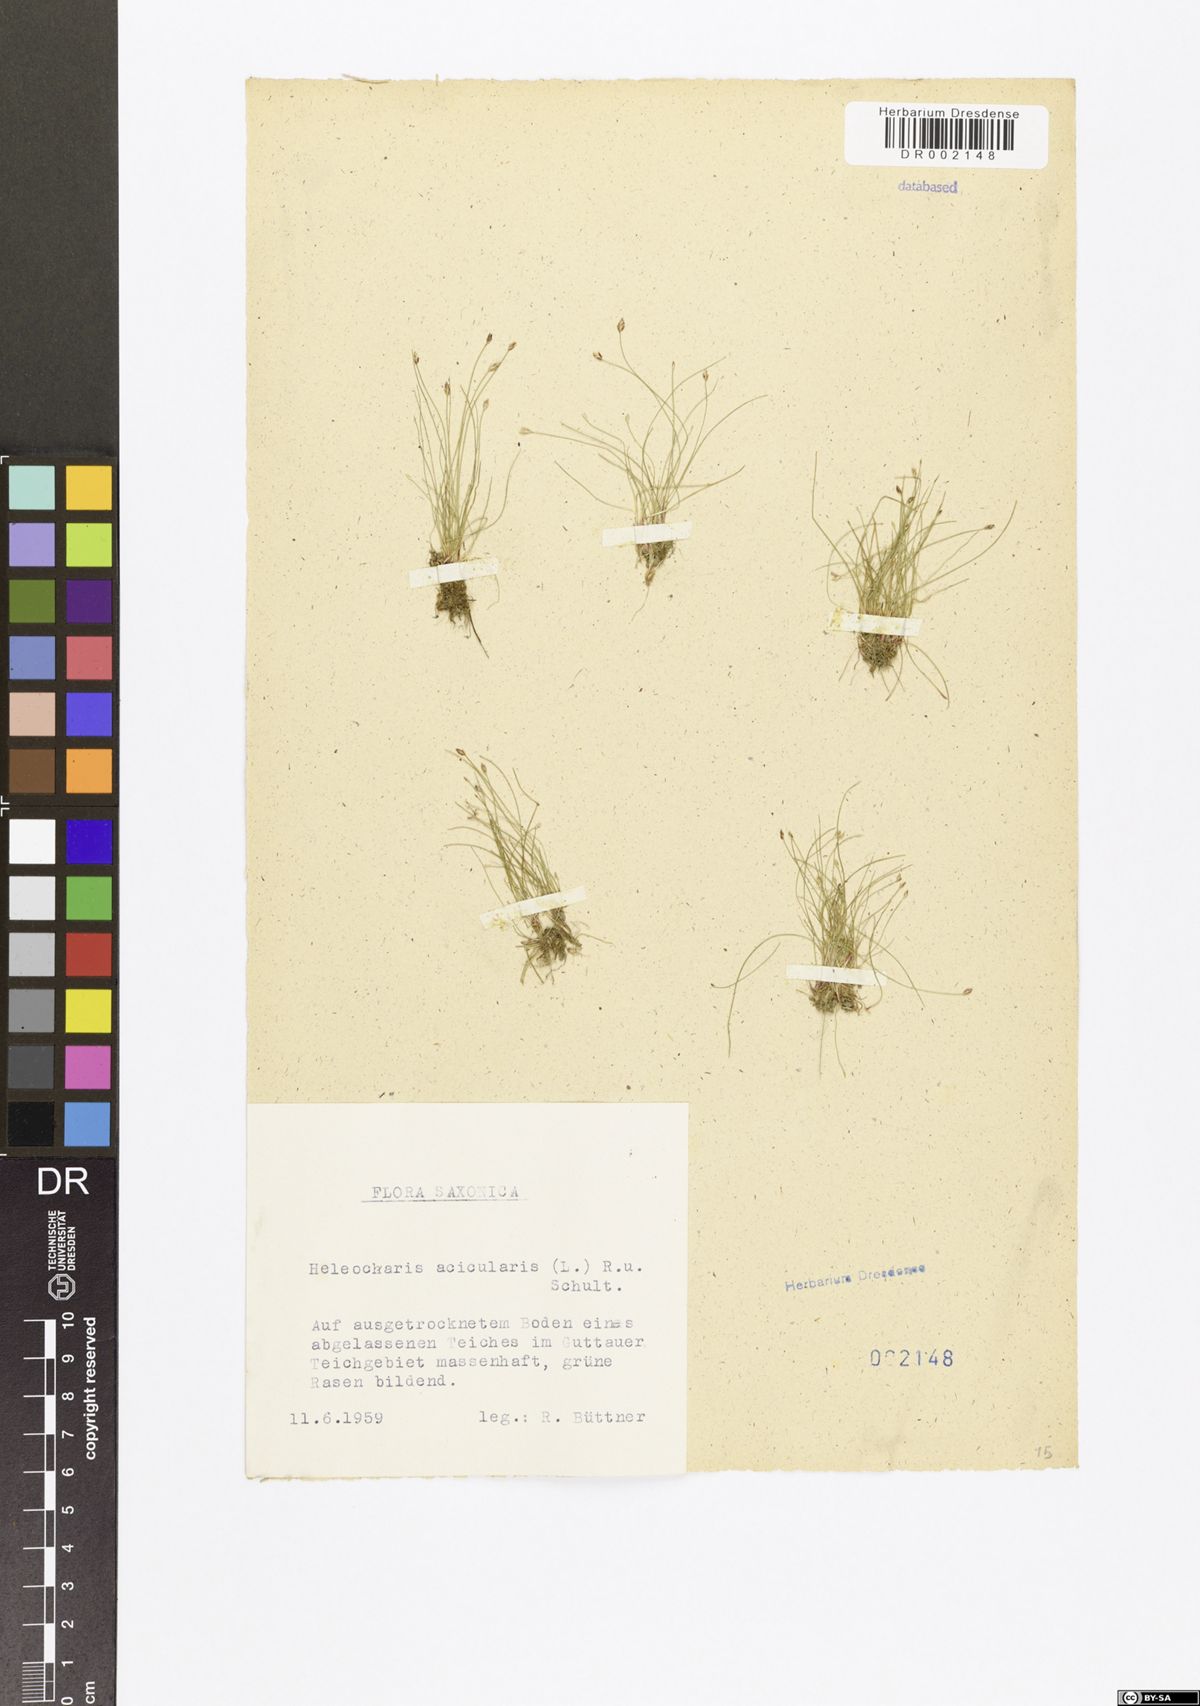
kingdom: Plantae
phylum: Tracheophyta
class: Liliopsida
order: Poales
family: Cyperaceae
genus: Eleocharis
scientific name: Eleocharis acicularis
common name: Needle spike-rush
